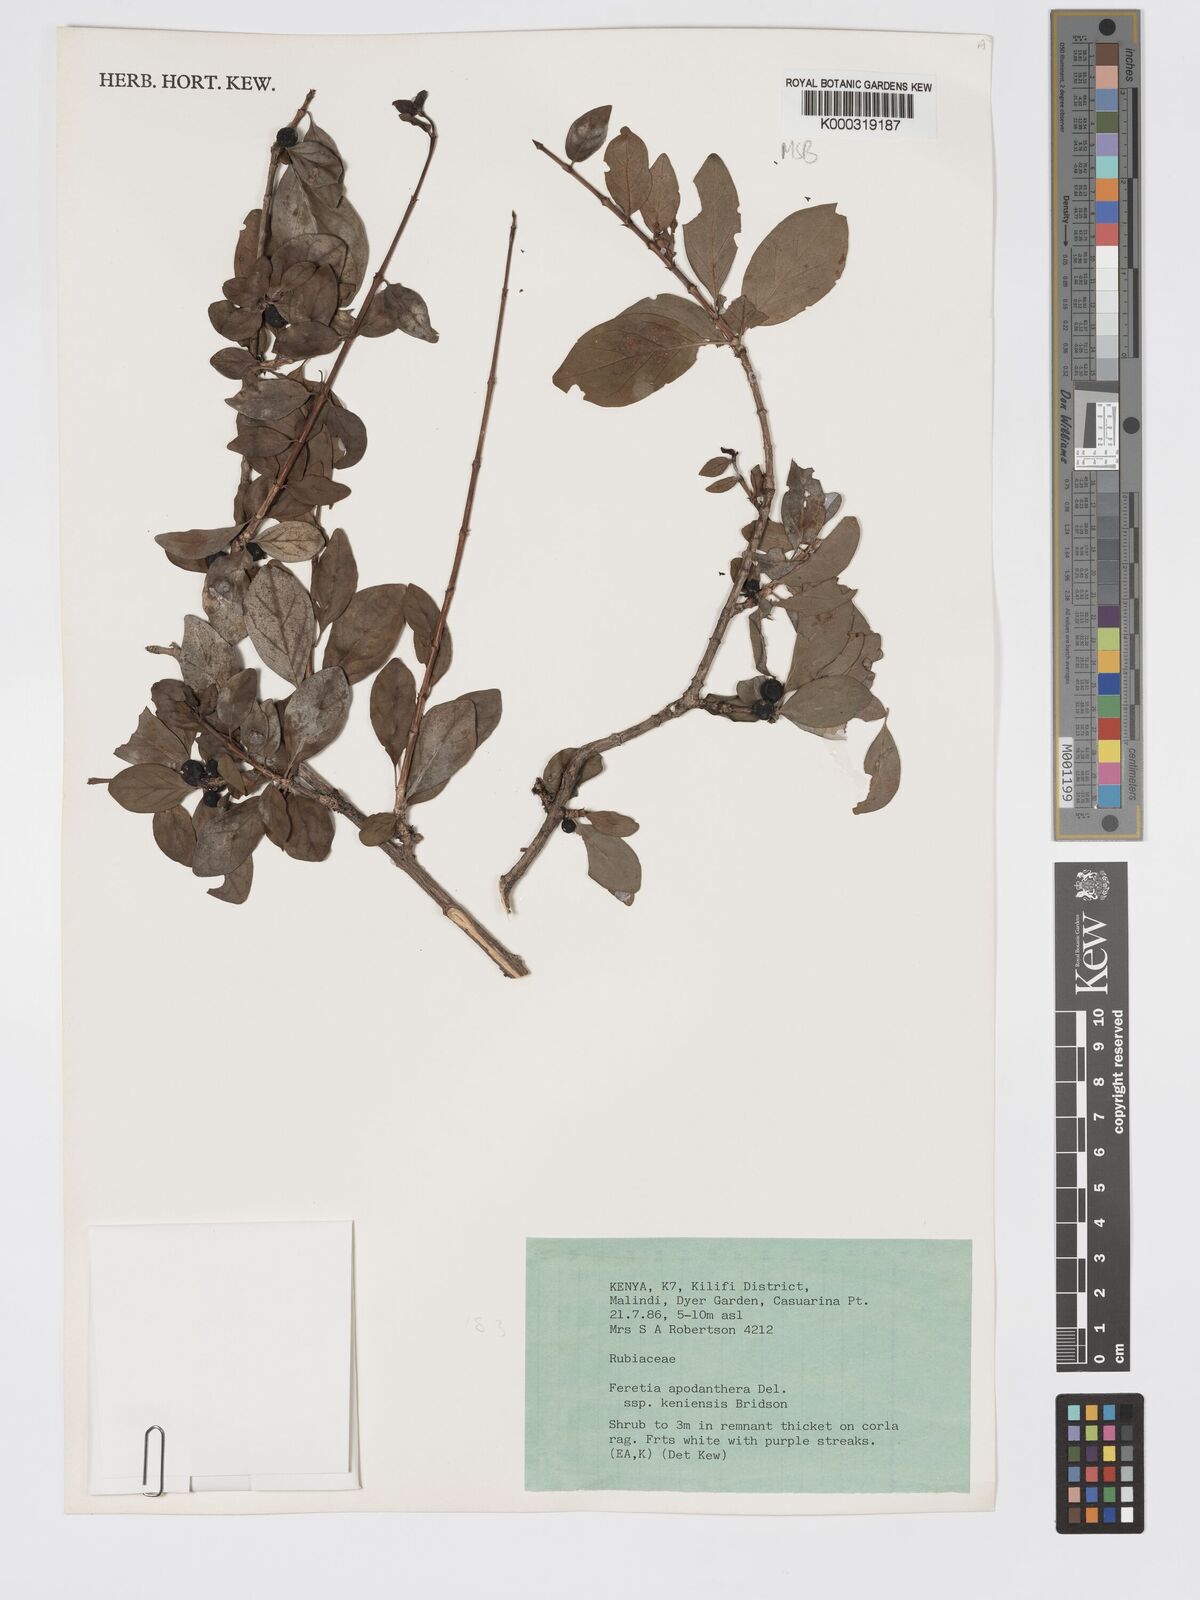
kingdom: Plantae
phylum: Tracheophyta
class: Magnoliopsida
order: Gentianales
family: Rubiaceae
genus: Feretia
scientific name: Feretia apodanthera
